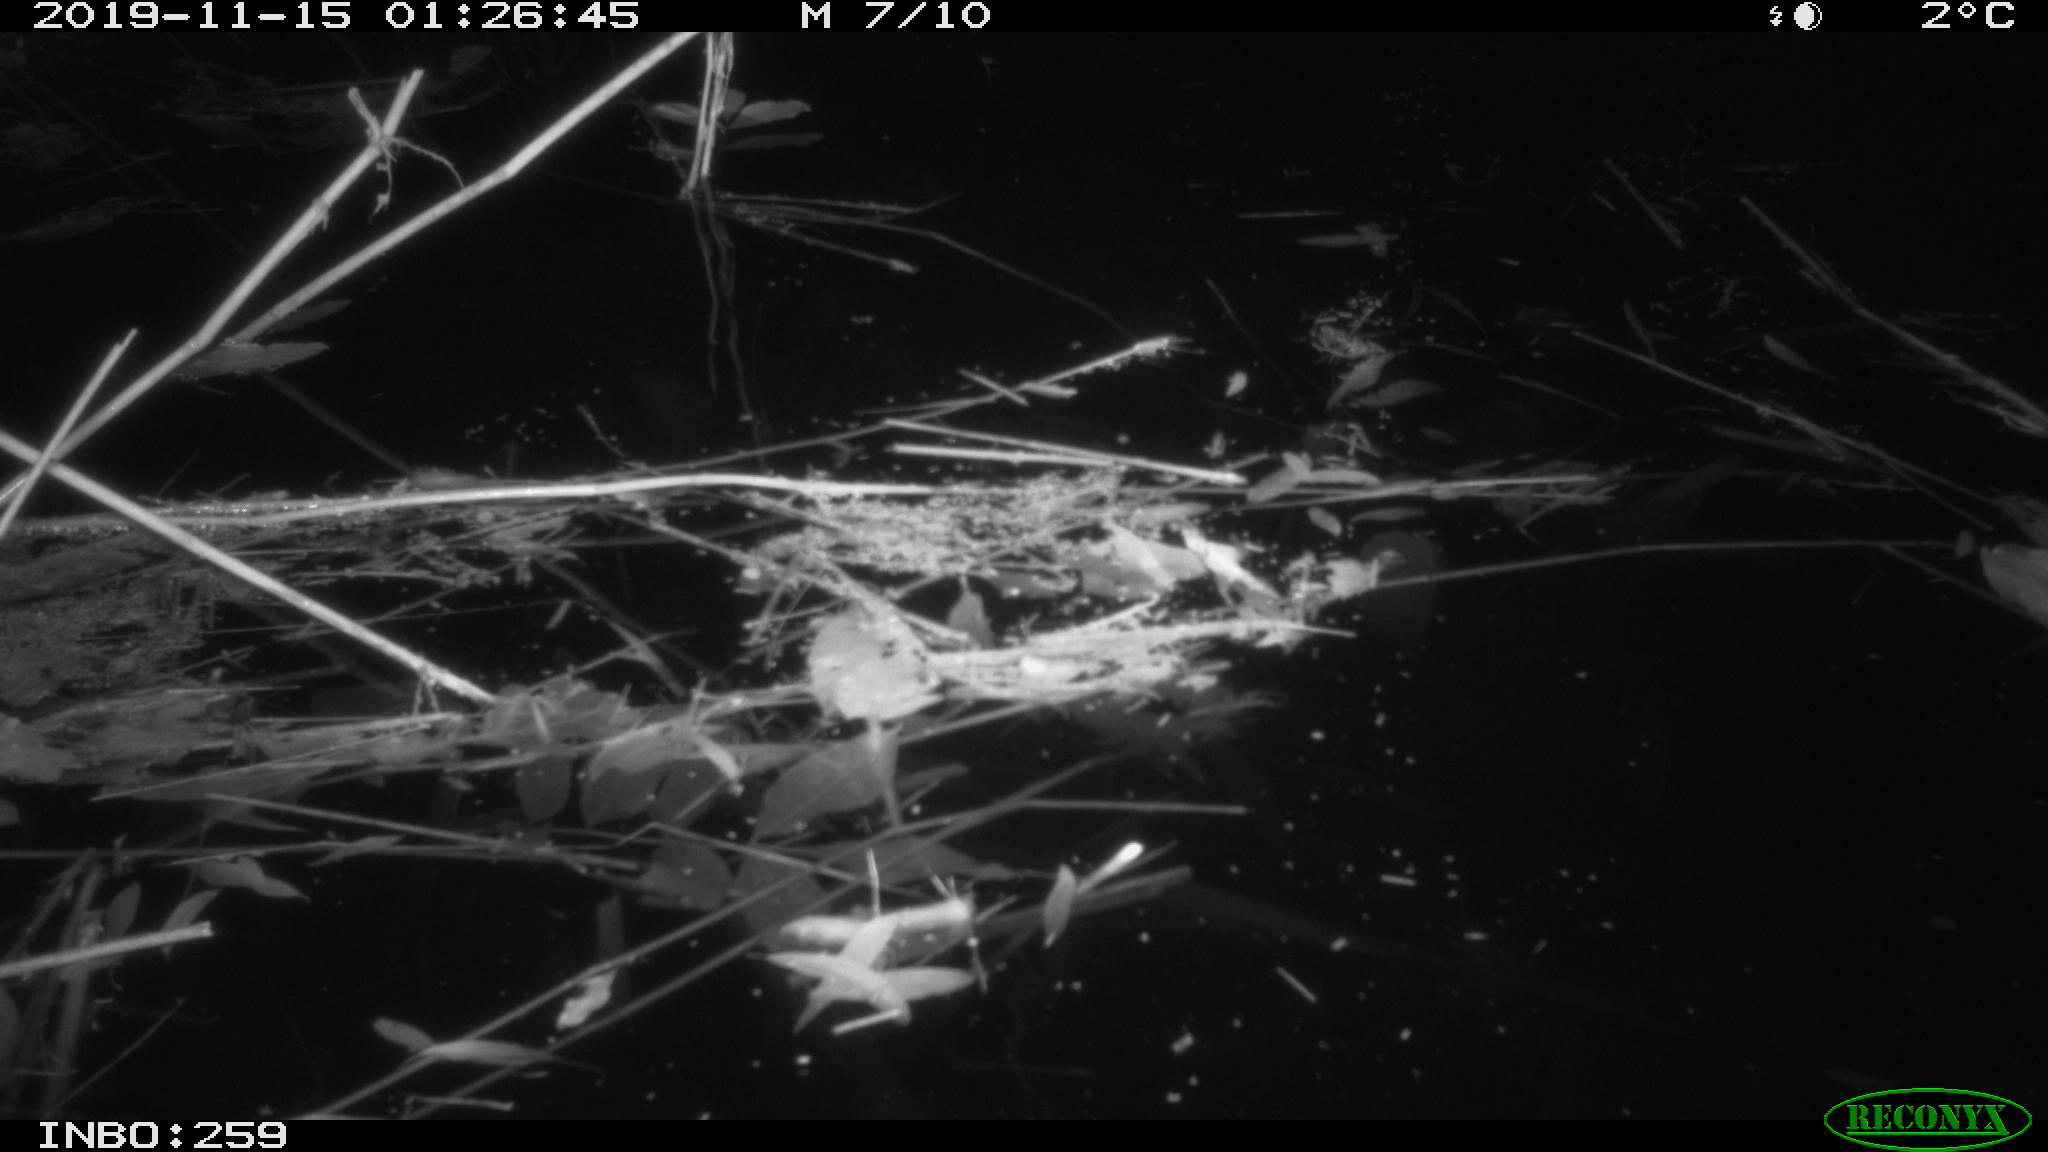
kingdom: Animalia
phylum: Chordata
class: Mammalia
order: Rodentia
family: Cricetidae
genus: Ondatra
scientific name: Ondatra zibethicus
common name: Muskrat
